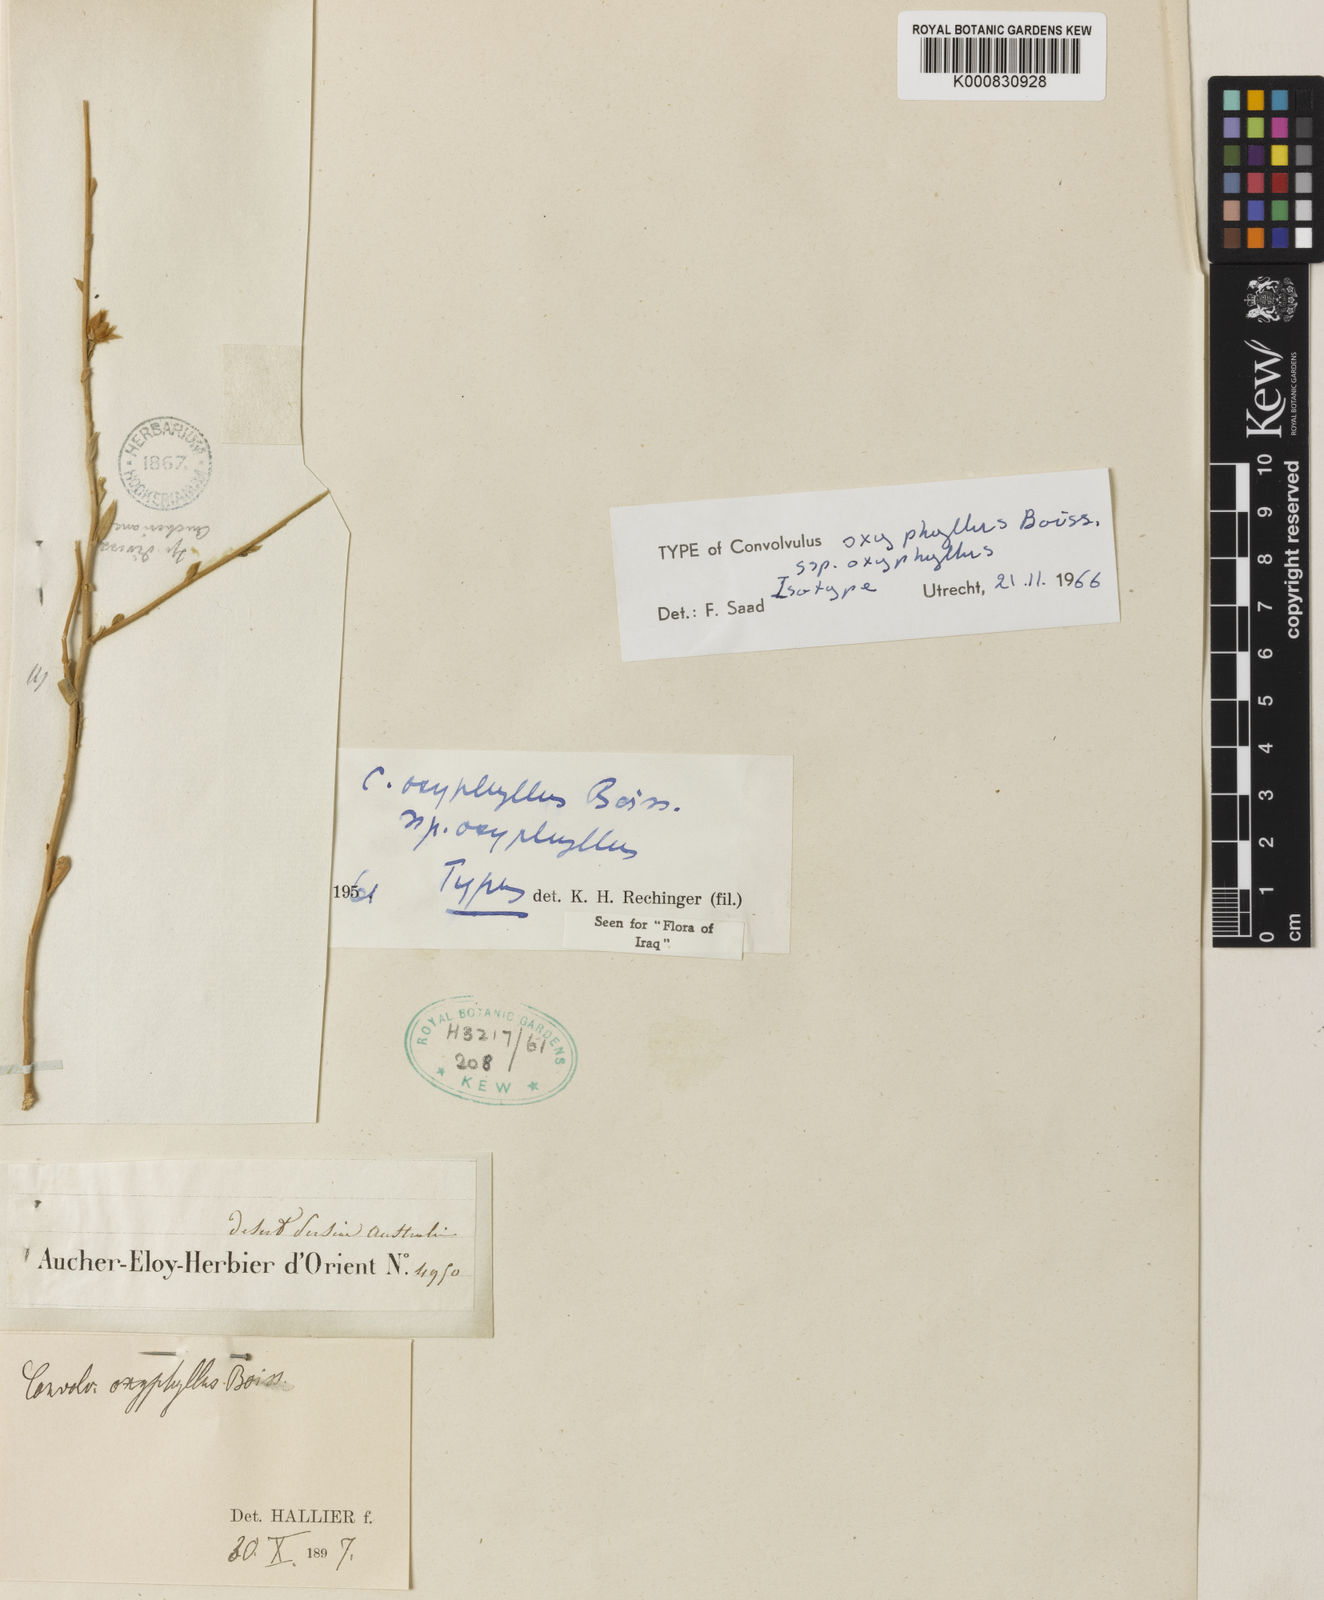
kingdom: Plantae
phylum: Tracheophyta
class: Magnoliopsida
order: Solanales
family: Convolvulaceae
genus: Convolvulus
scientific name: Convolvulus oxyphyllus
